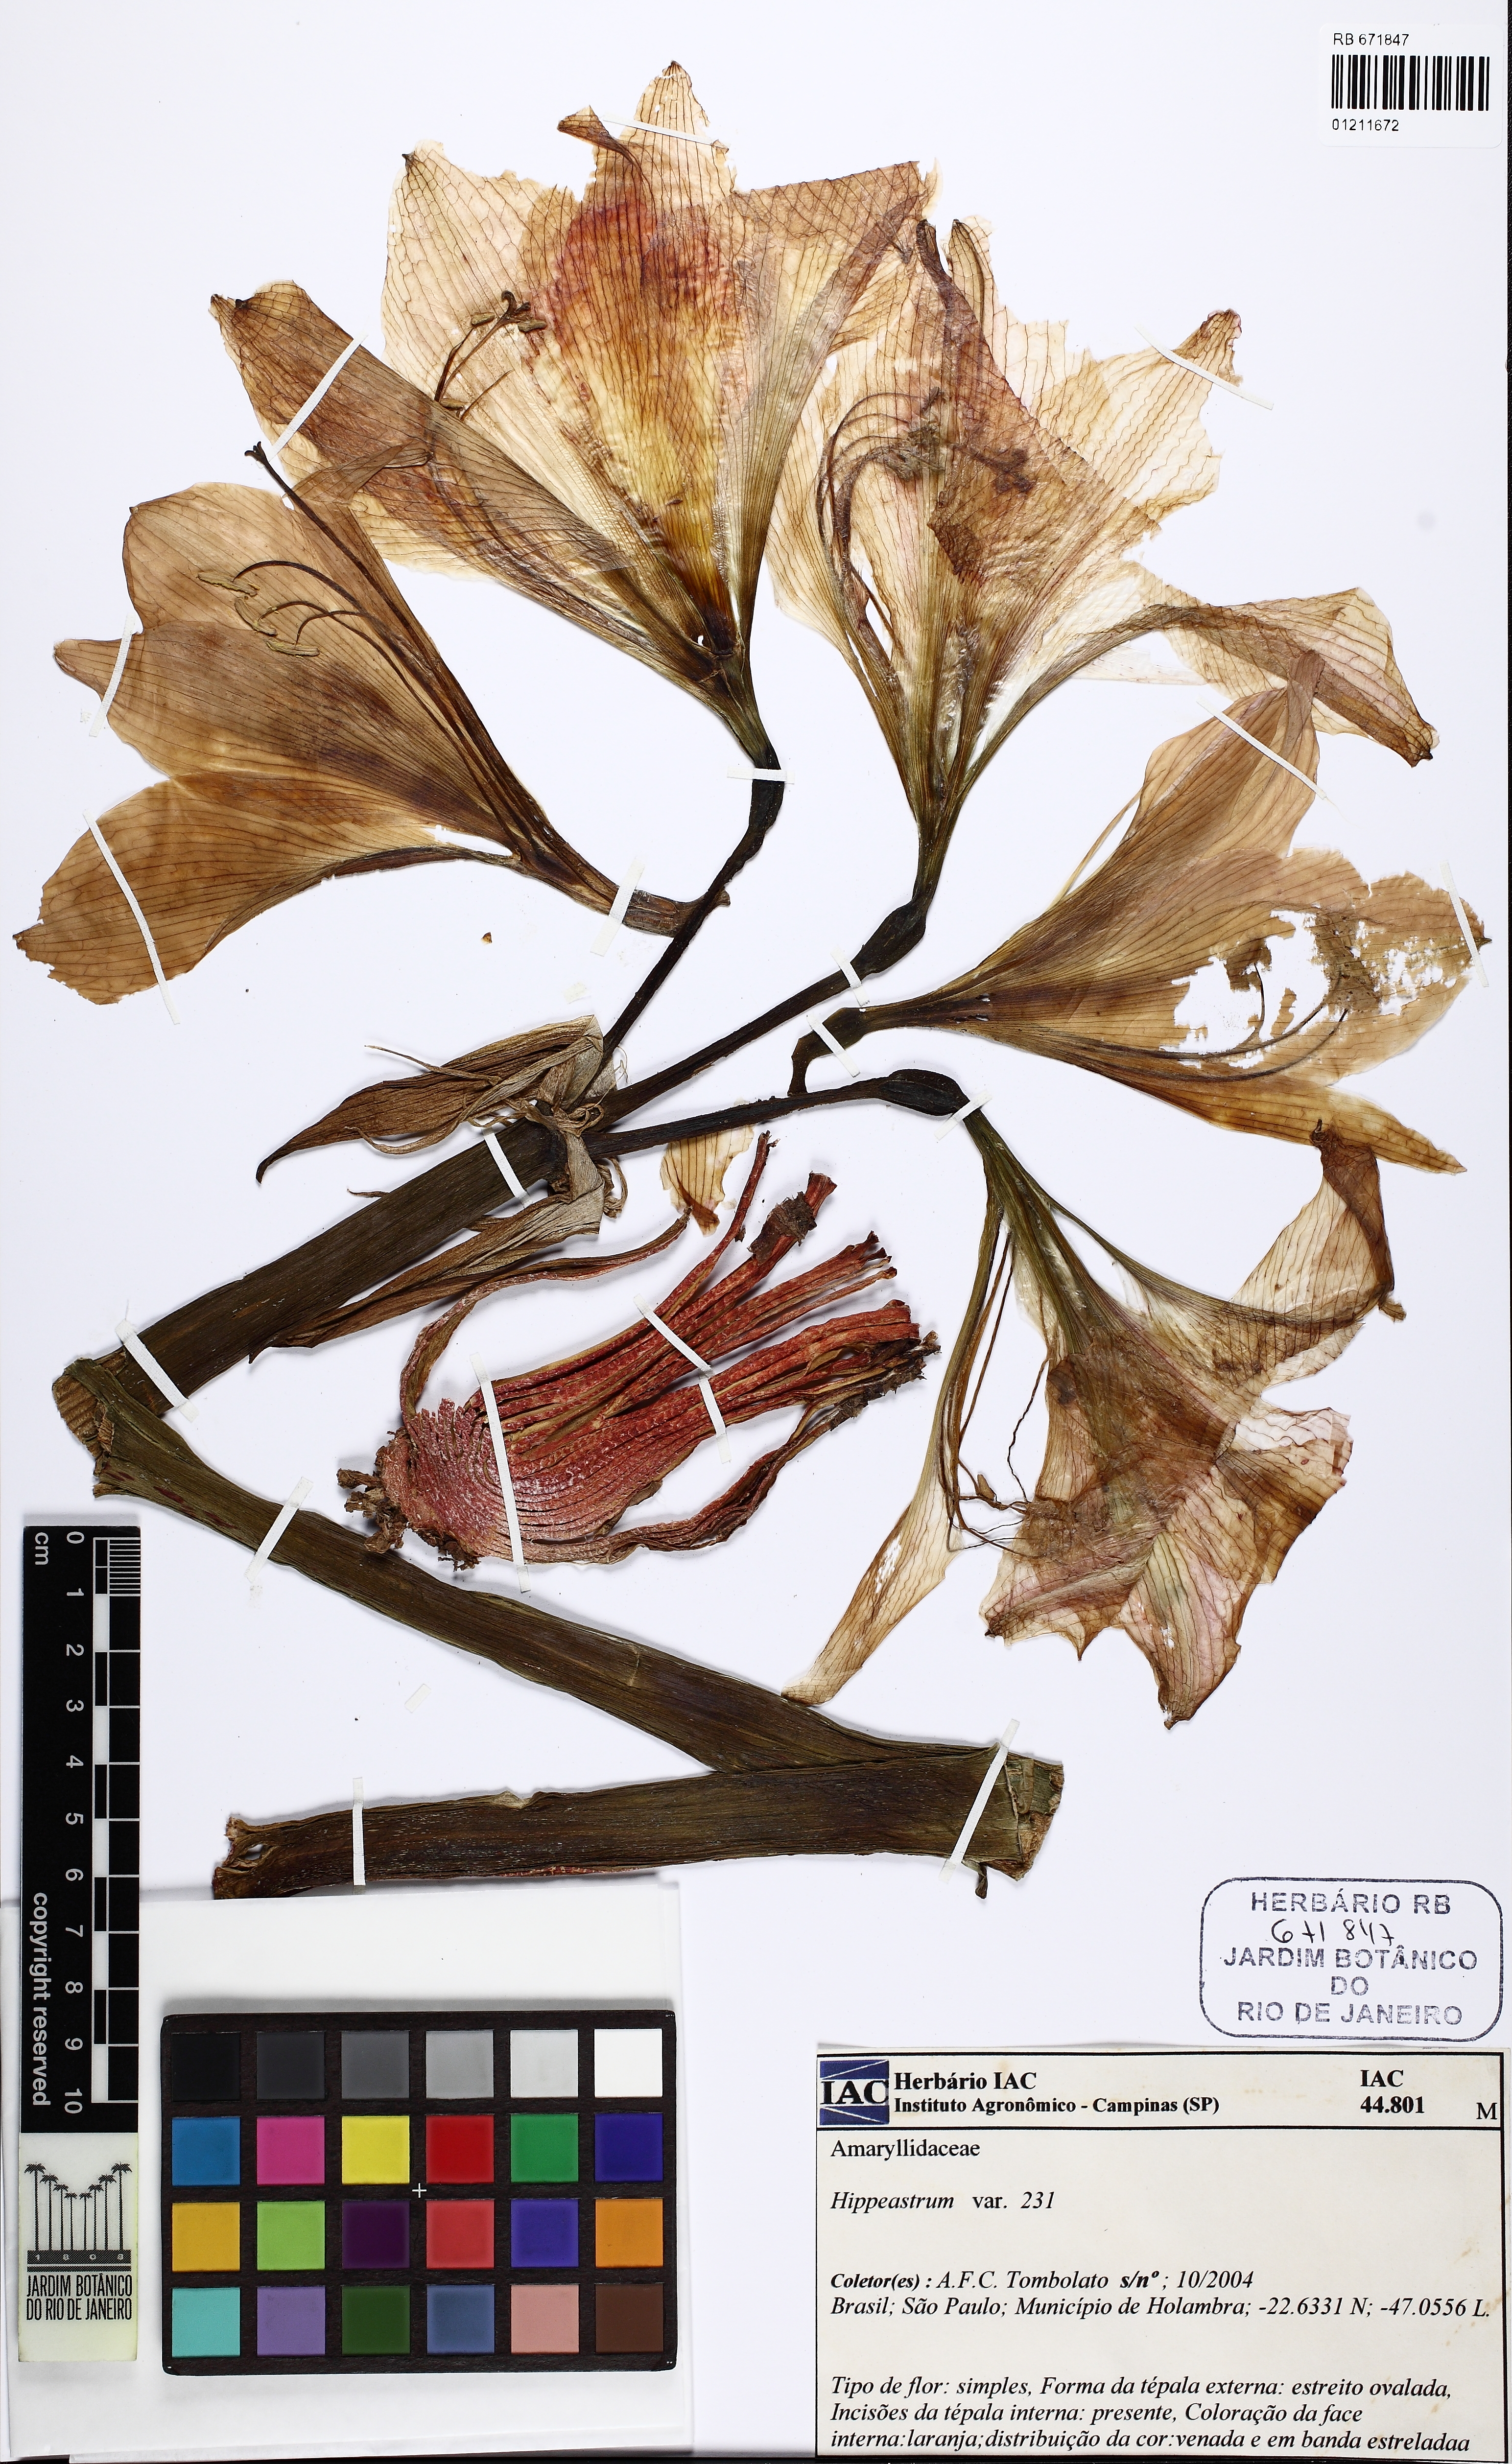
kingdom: Plantae
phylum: Tracheophyta
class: Liliopsida
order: Asparagales
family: Amaryllidaceae
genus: Hippeastrum
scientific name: Hippeastrum
